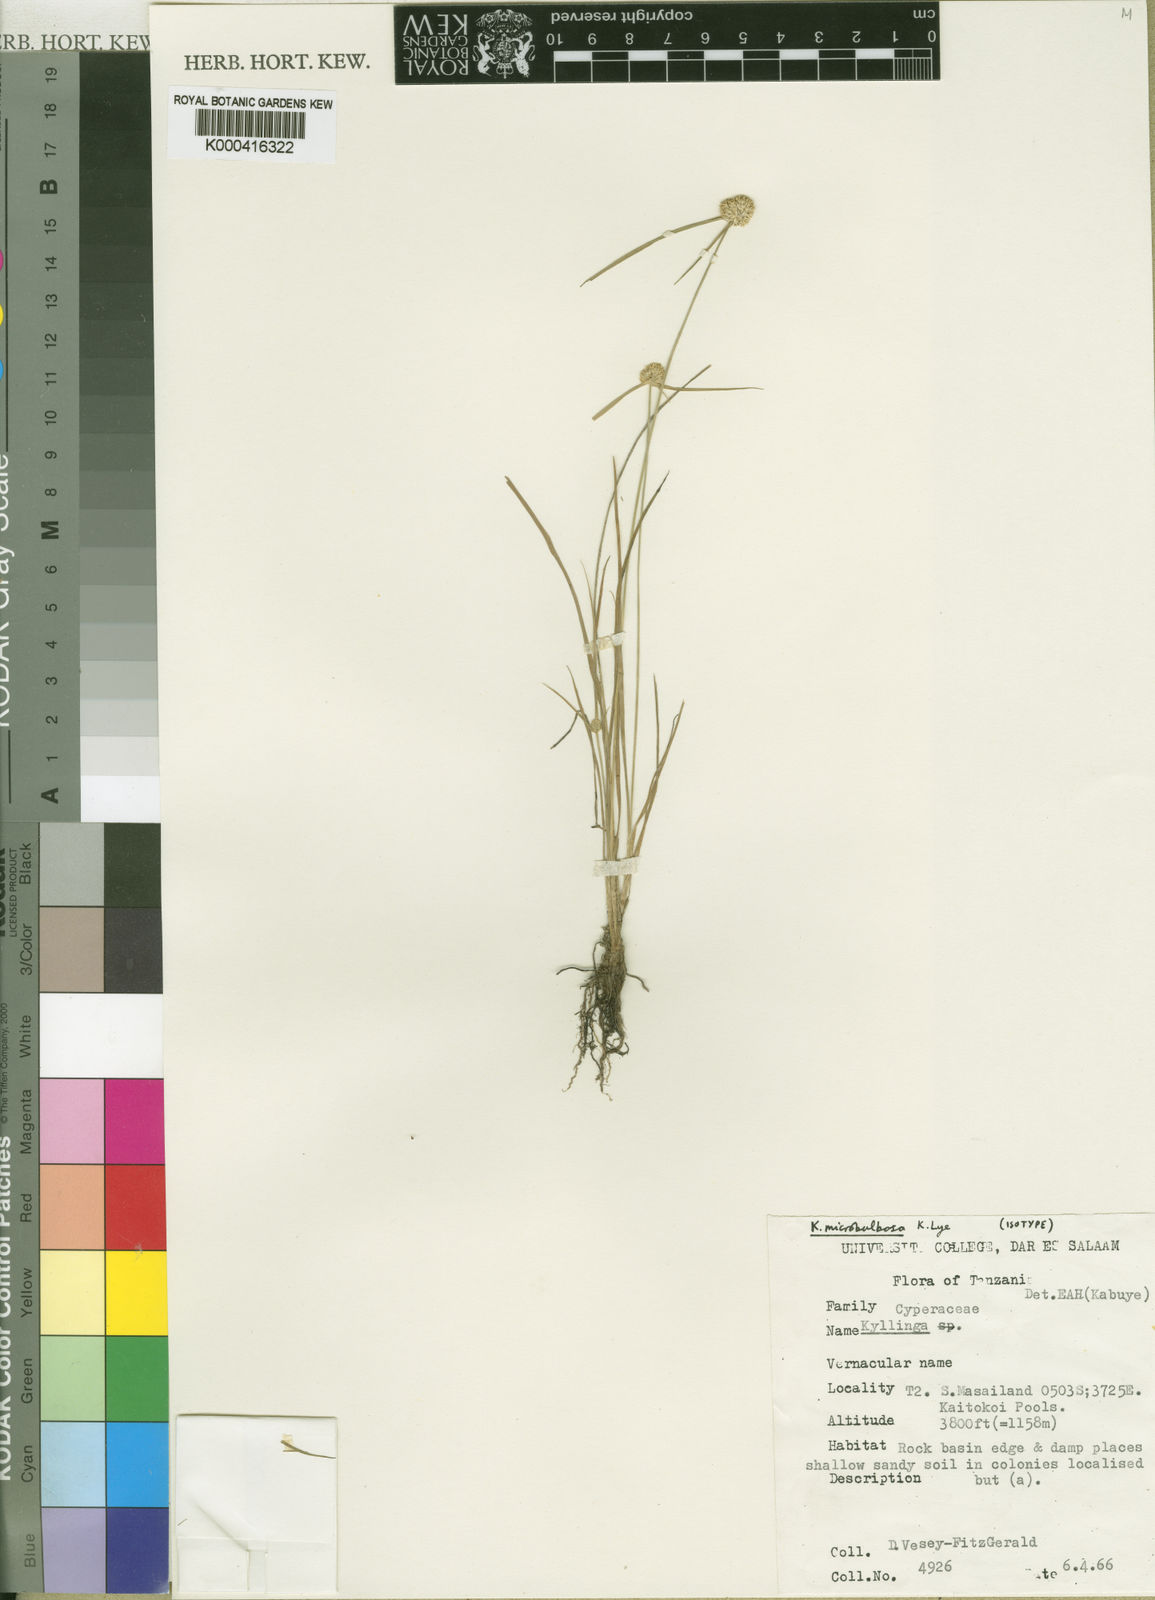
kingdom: Plantae
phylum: Tracheophyta
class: Liliopsida
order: Poales
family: Cyperaceae
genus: Cyperus
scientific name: Cyperus microbulbosus
